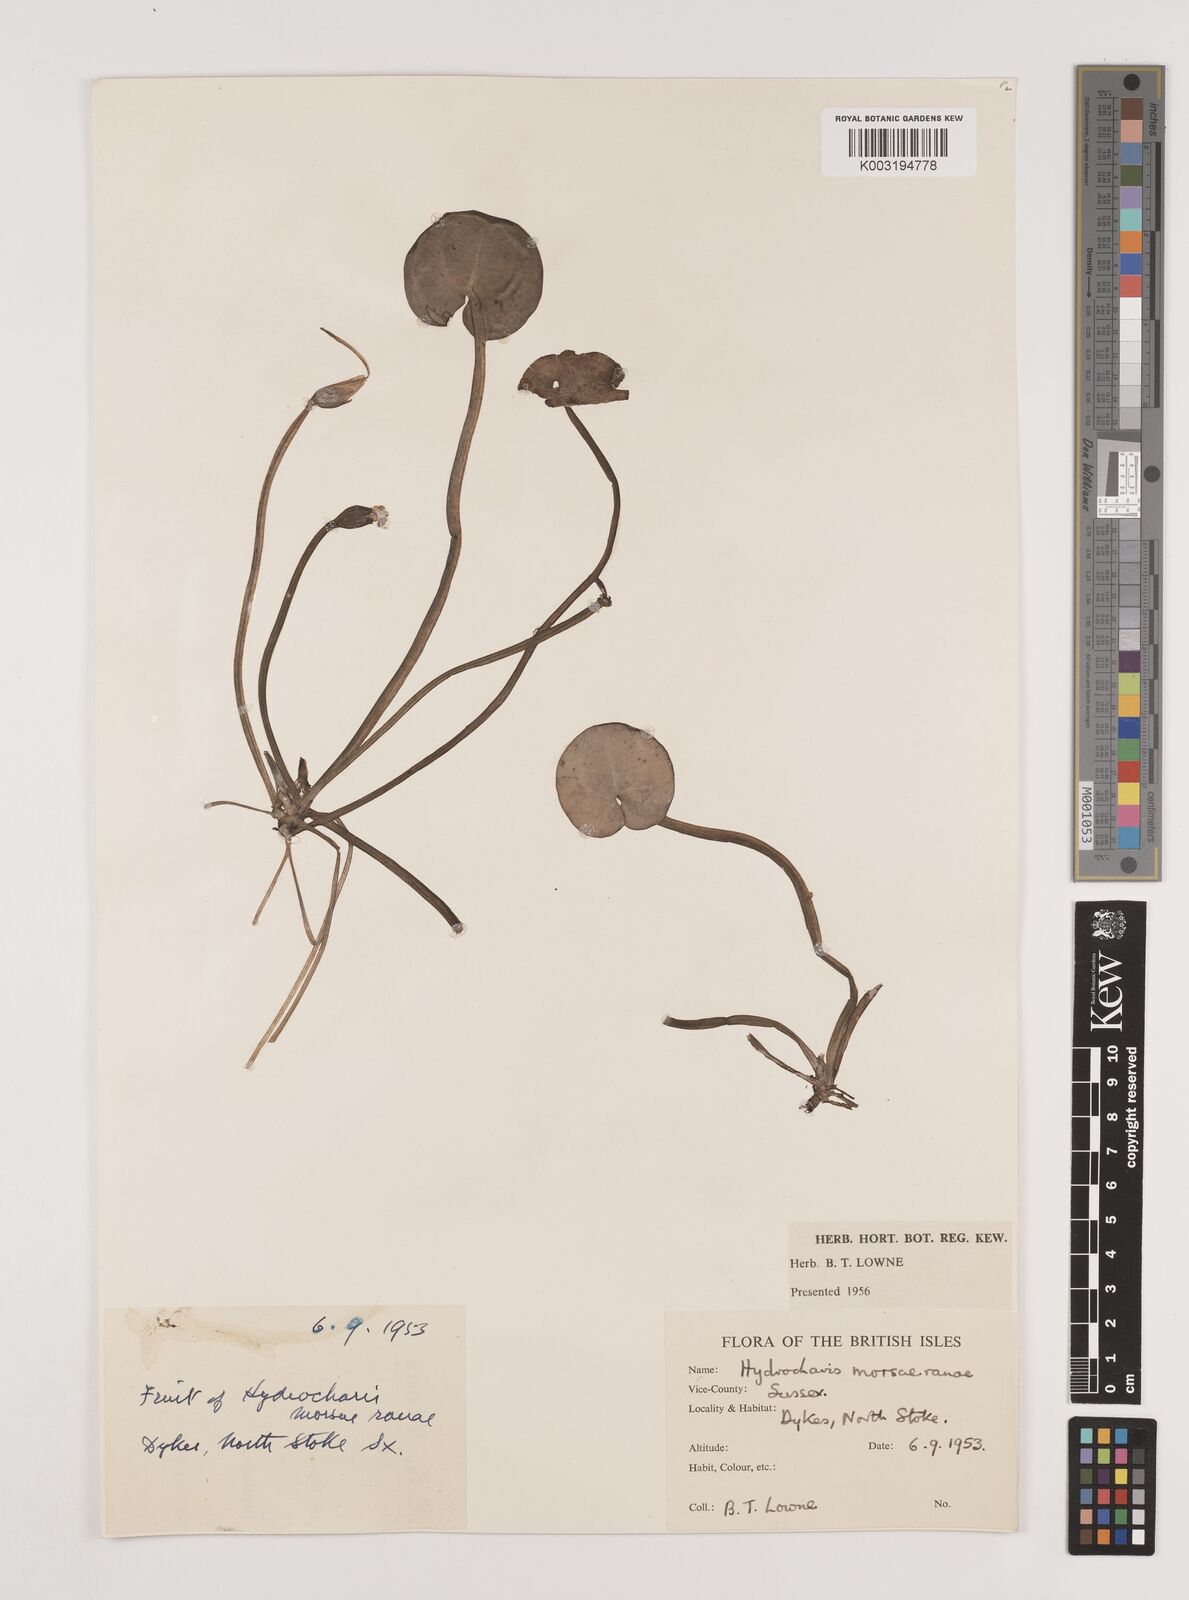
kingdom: Plantae
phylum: Tracheophyta
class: Liliopsida
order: Alismatales
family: Hydrocharitaceae
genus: Hydrocharis
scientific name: Hydrocharis morsus-ranae
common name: Frogbit
